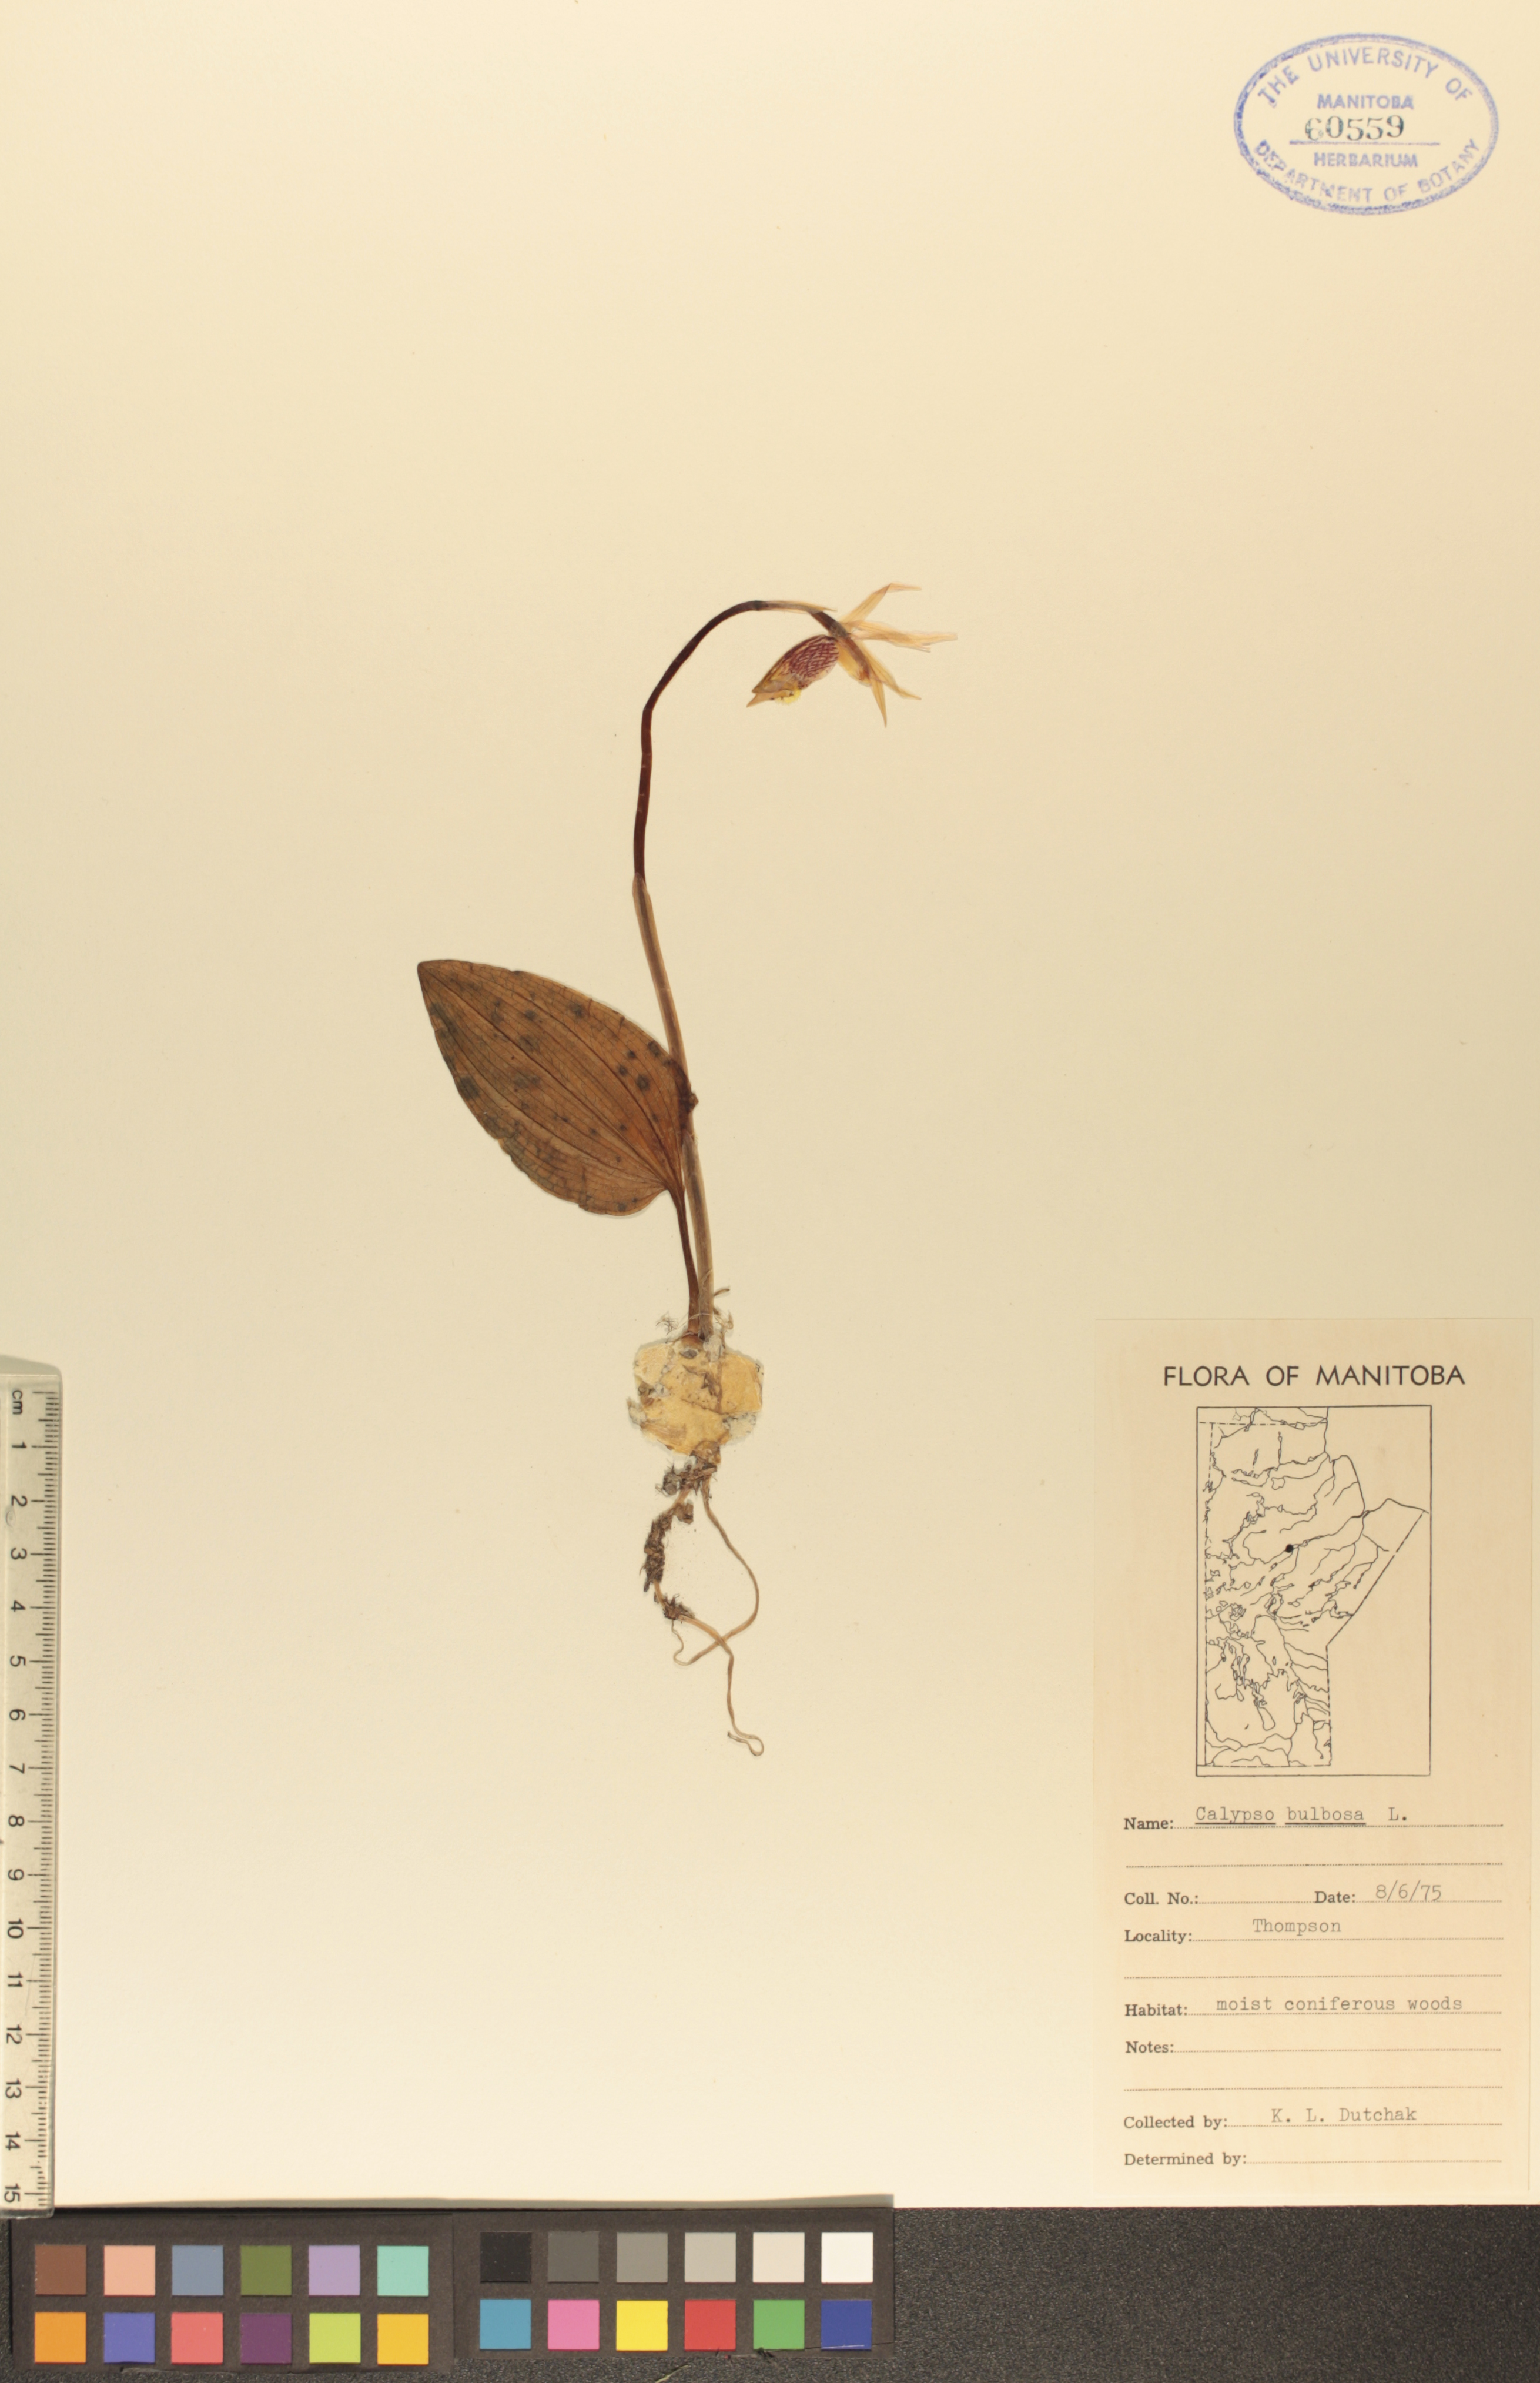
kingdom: Plantae
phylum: Tracheophyta
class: Liliopsida
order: Asparagales
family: Orchidaceae
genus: Calypso
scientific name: Calypso bulbosa
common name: Calypso
